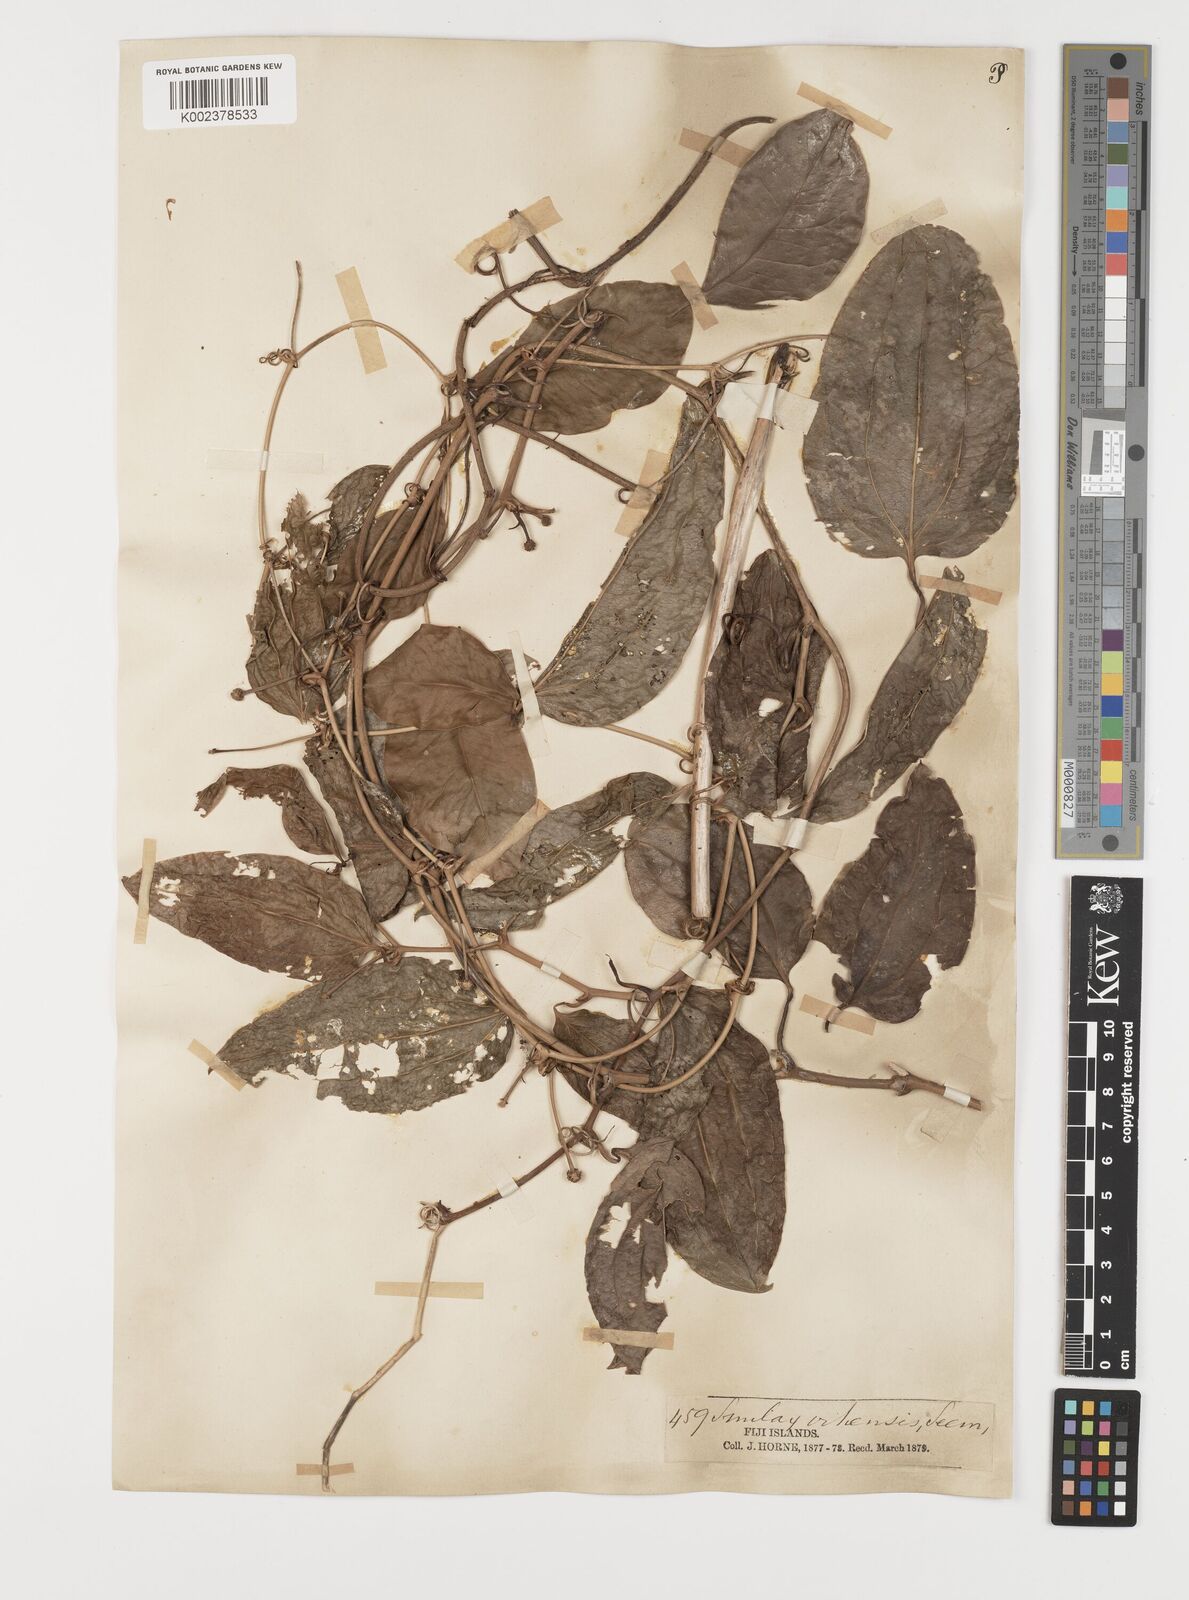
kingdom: Plantae
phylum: Tracheophyta
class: Liliopsida
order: Liliales
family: Smilacaceae
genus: Smilax
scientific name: Smilax vitiensis
